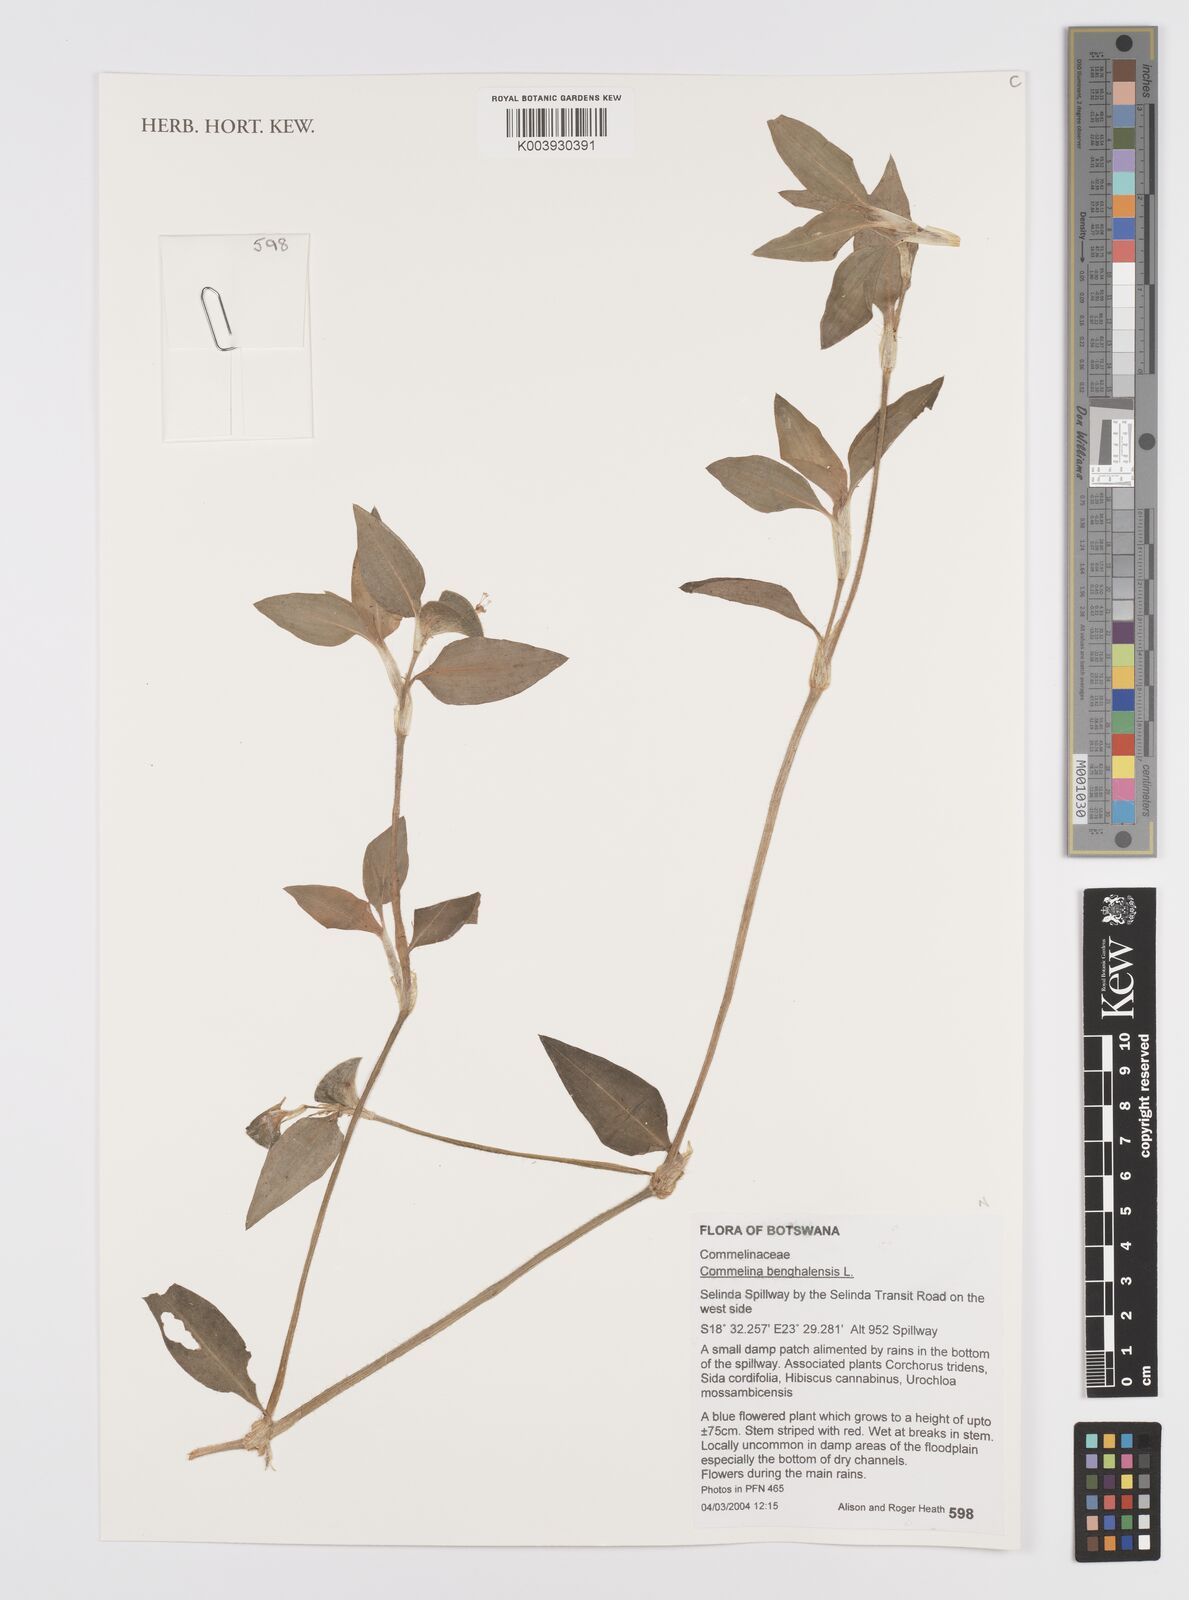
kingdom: Plantae
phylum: Tracheophyta
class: Liliopsida
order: Commelinales
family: Commelinaceae
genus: Commelina
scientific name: Commelina benghalensis
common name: Jio
